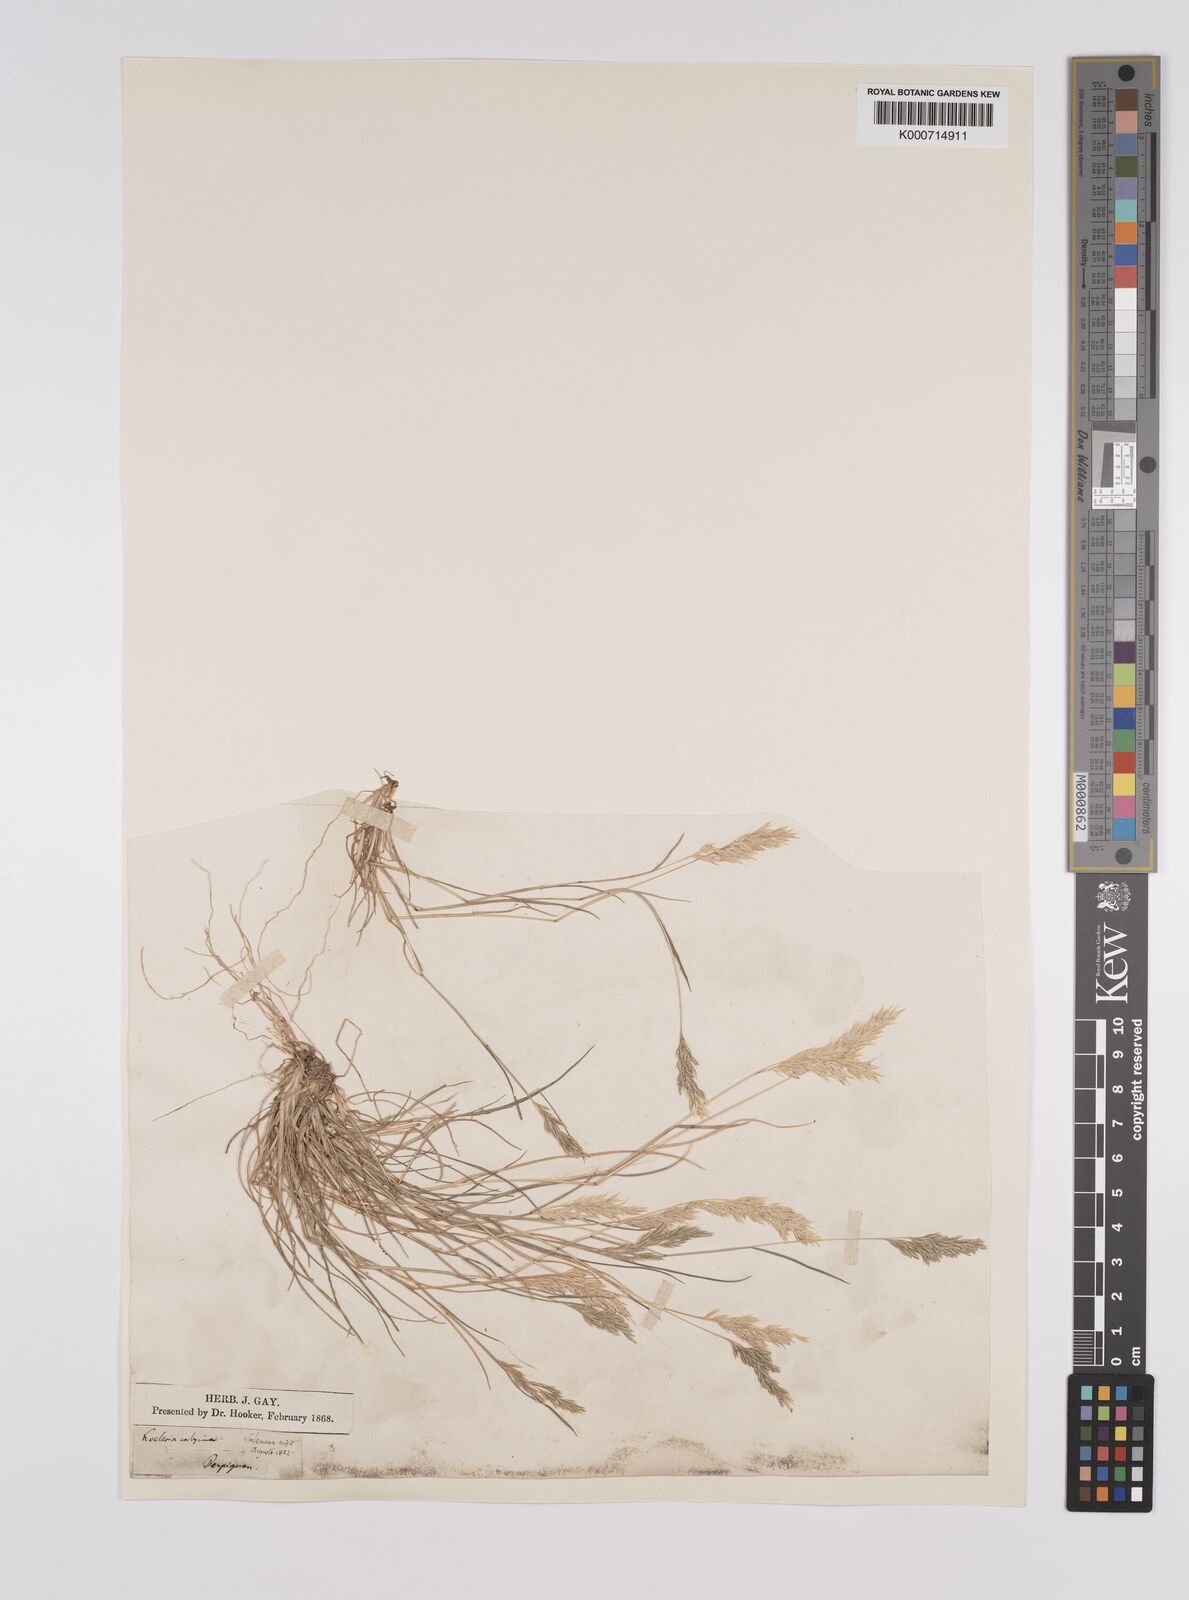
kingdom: Plantae
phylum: Tracheophyta
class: Liliopsida
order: Poales
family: Poaceae
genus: Schismus
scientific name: Schismus barbatus
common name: Kelch-grass
